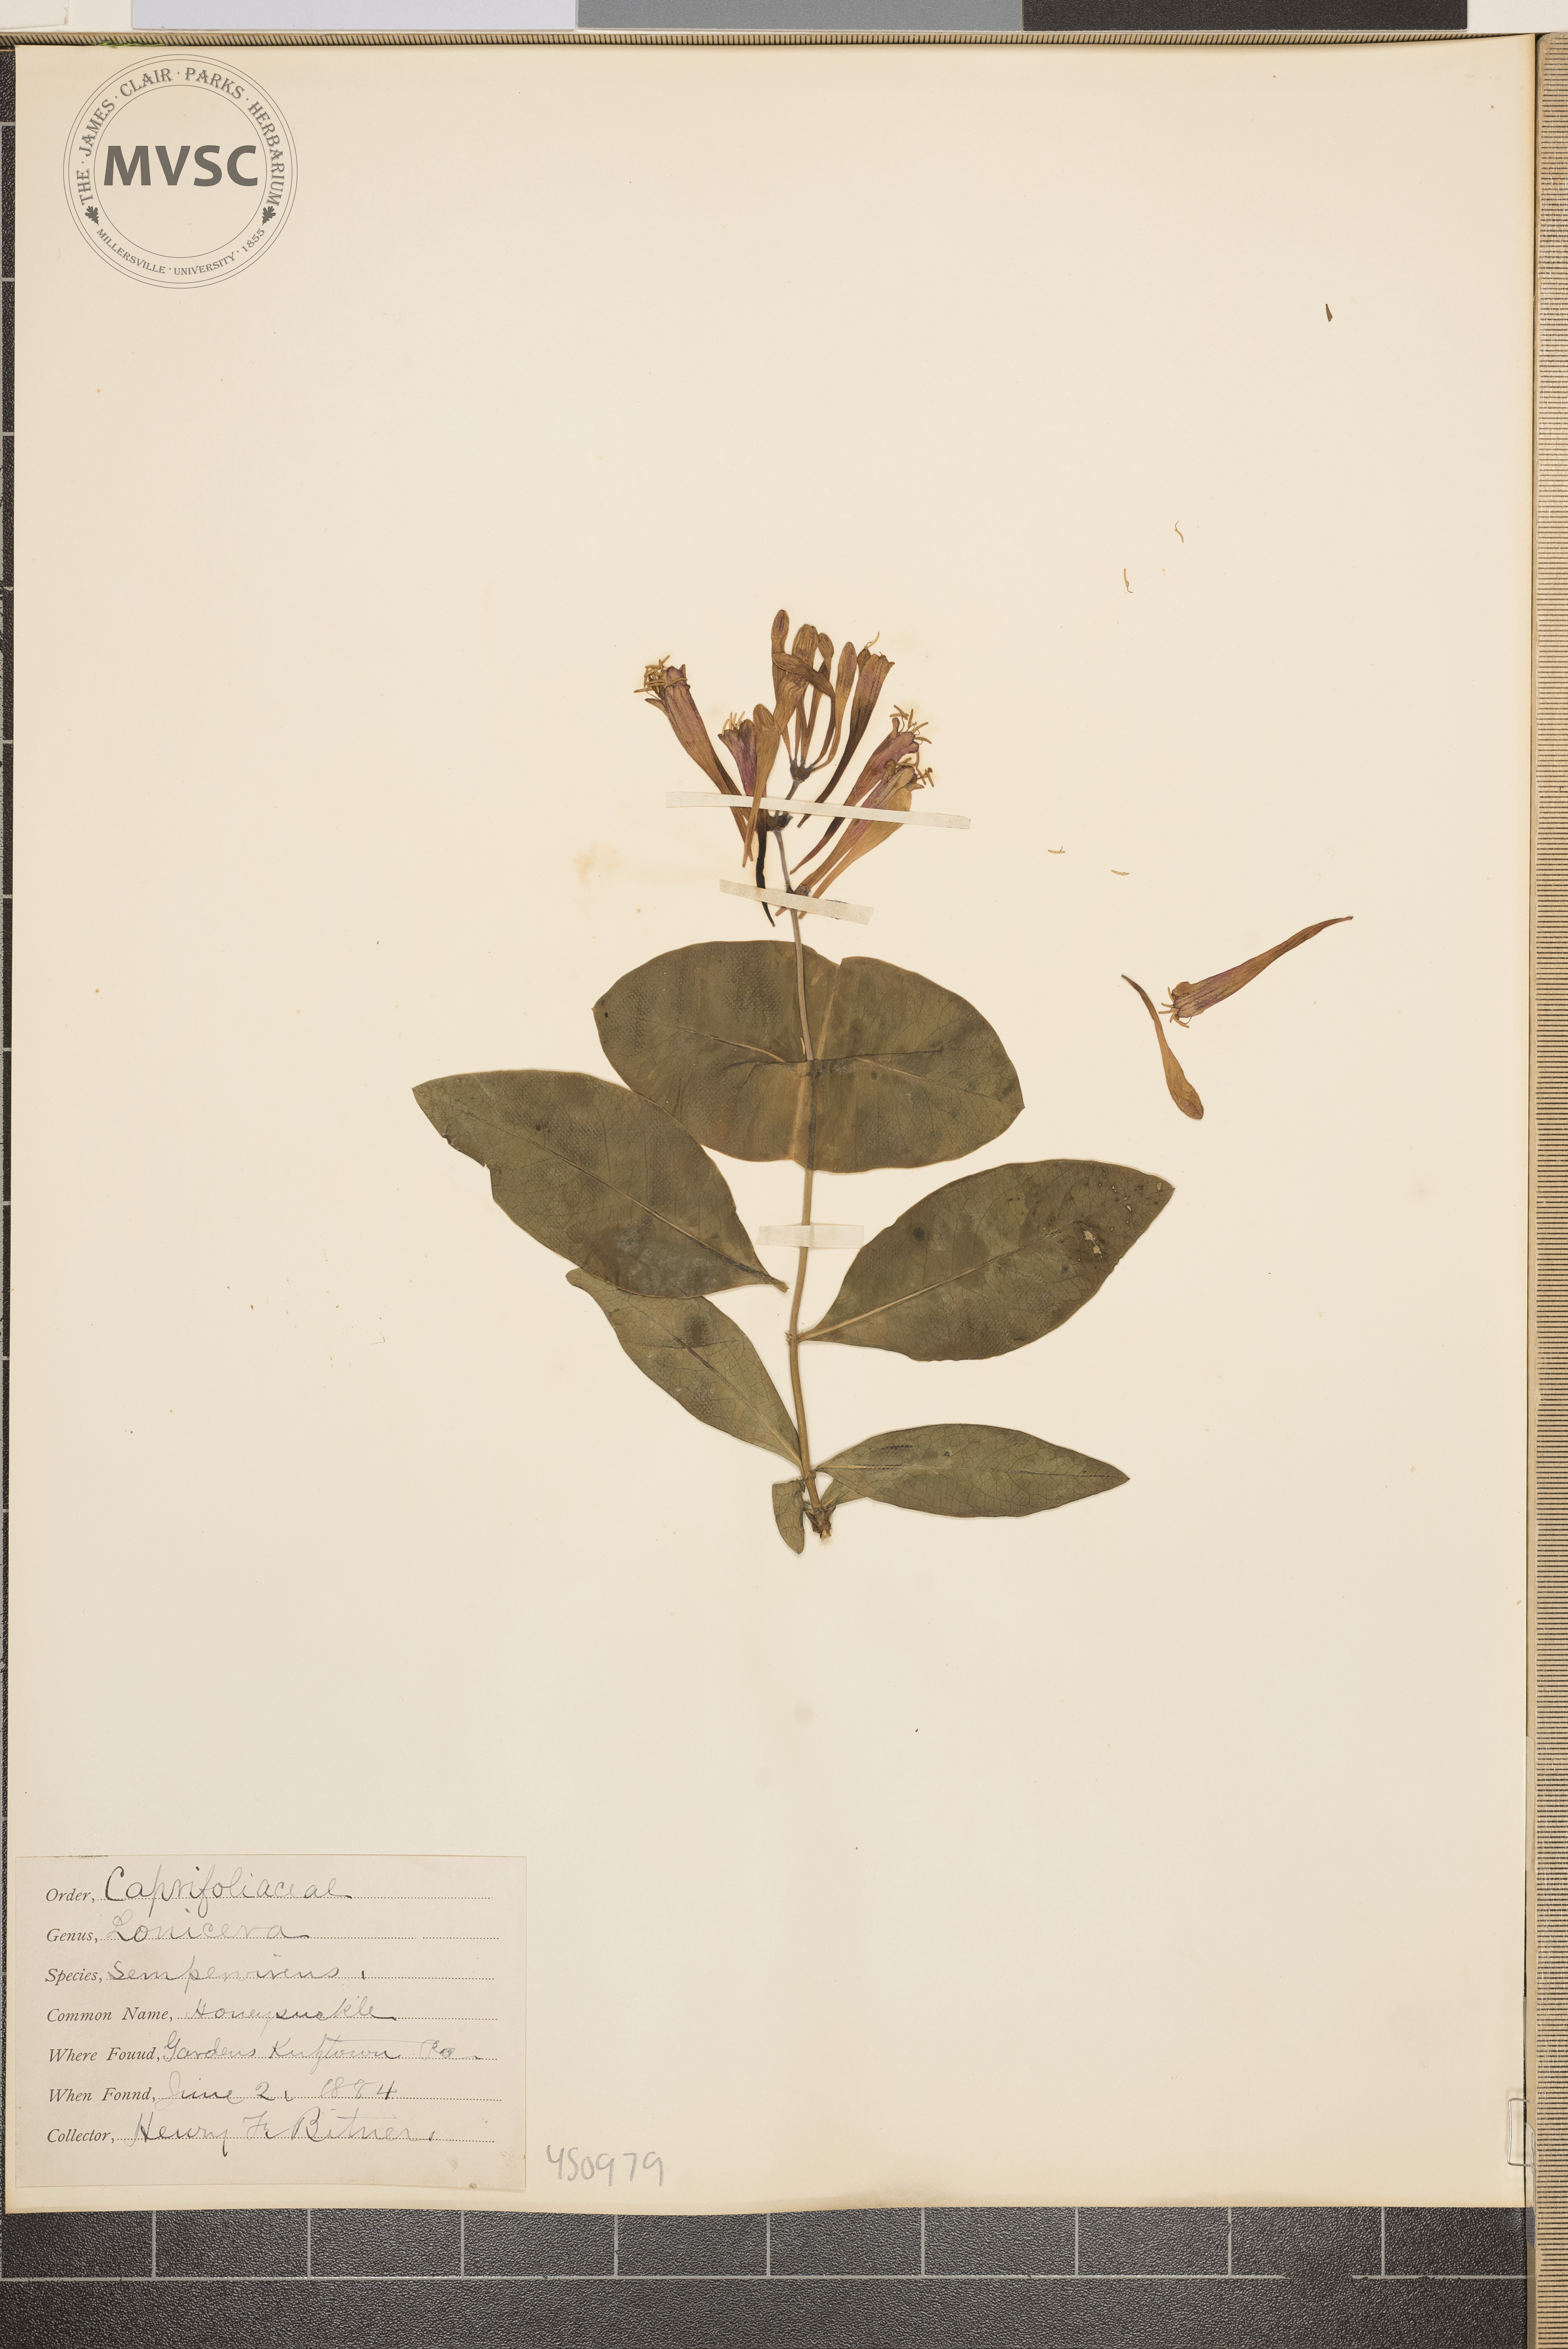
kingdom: Plantae
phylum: Tracheophyta
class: Magnoliopsida
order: Dipsacales
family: Caprifoliaceae
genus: Lonicera
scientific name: Lonicera sempervirens
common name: Honeysuckle
